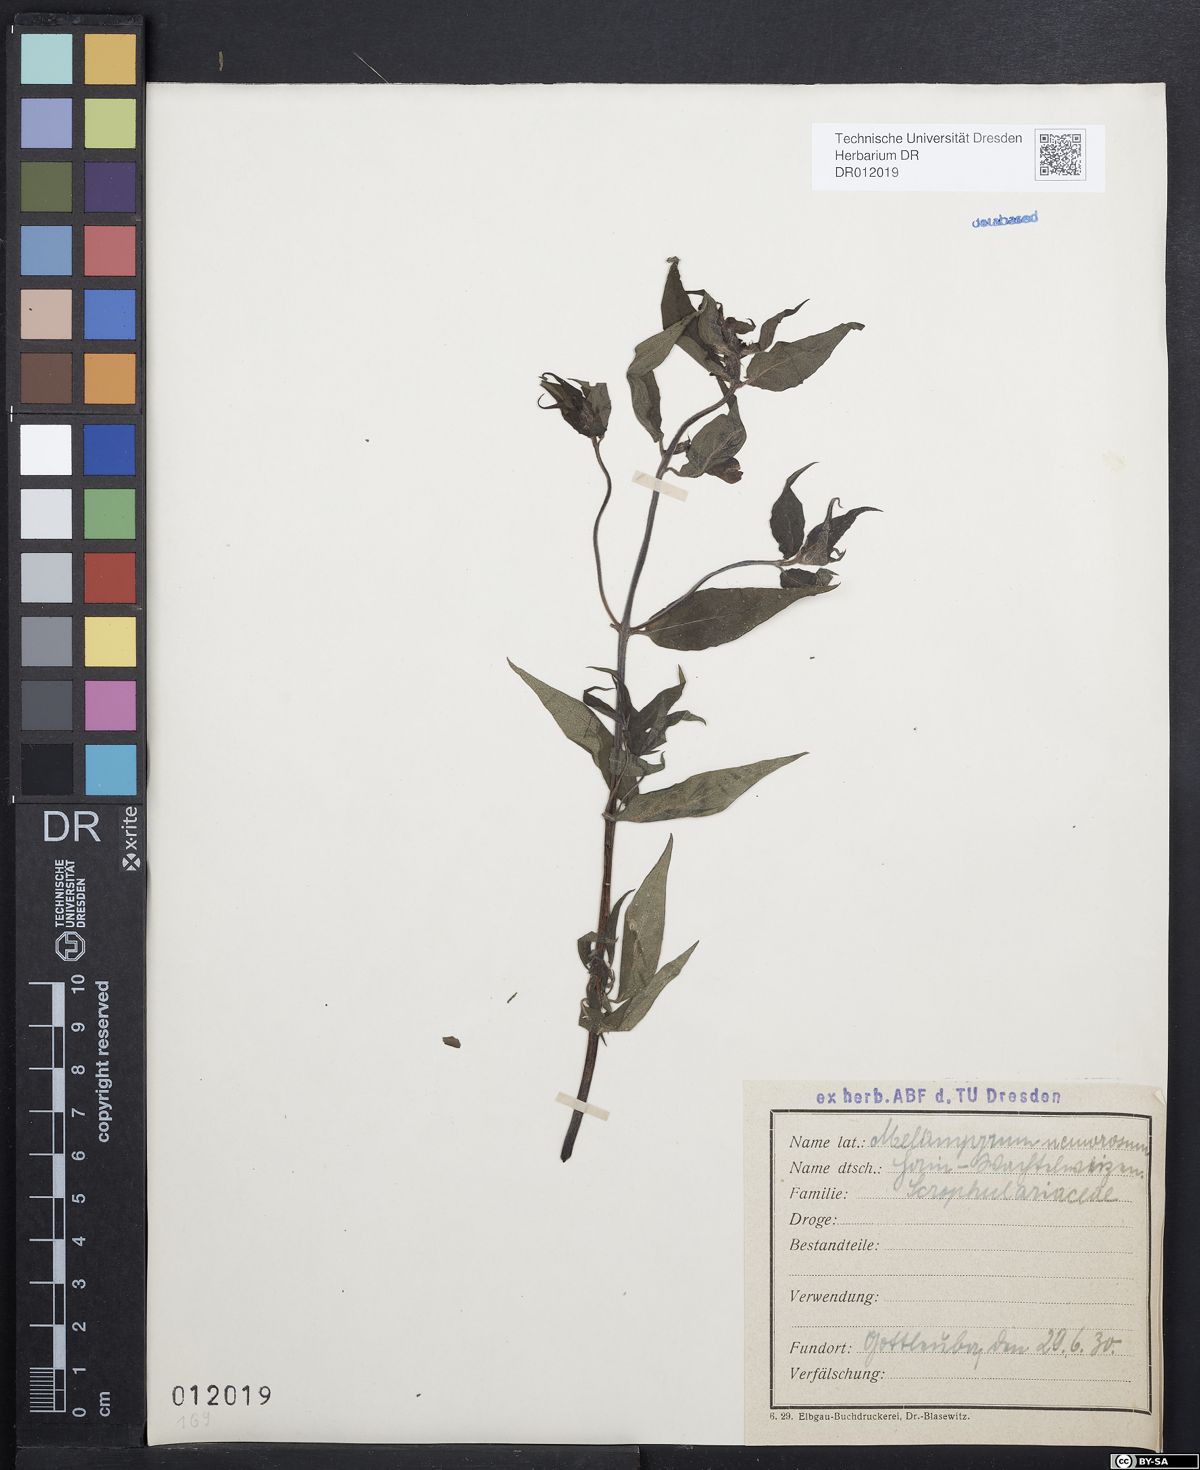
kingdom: Plantae
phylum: Tracheophyta
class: Magnoliopsida
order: Lamiales
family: Orobanchaceae
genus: Melampyrum
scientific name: Melampyrum nemorosum
